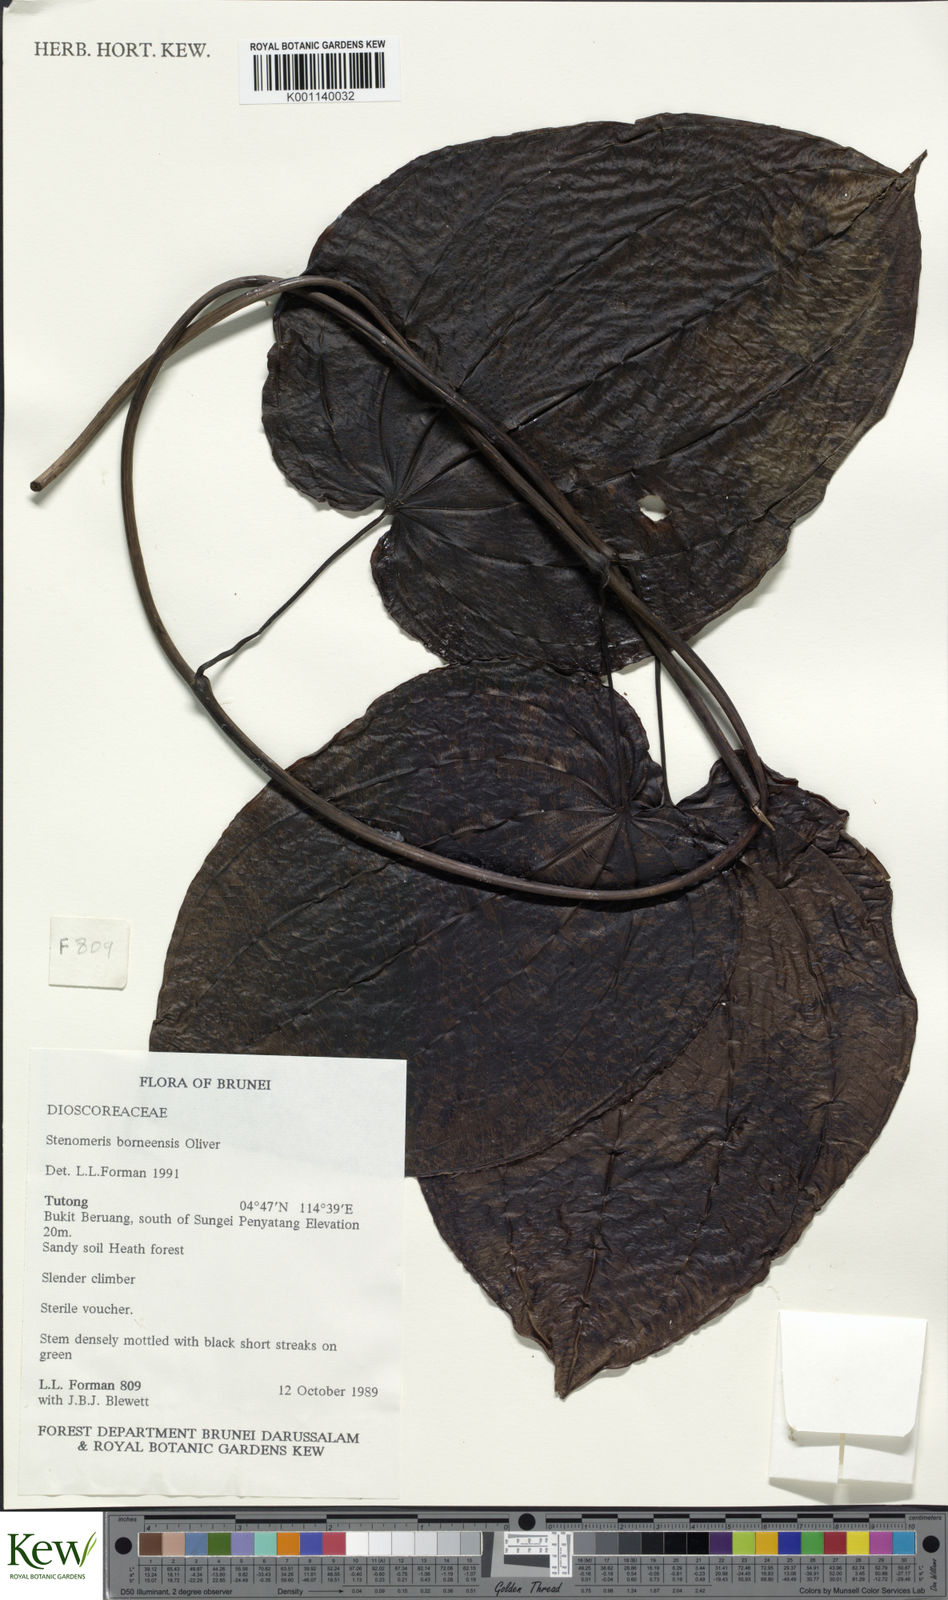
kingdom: Plantae
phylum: Tracheophyta
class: Liliopsida
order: Dioscoreales
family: Dioscoreaceae
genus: Stenomeris
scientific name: Stenomeris borneensis
